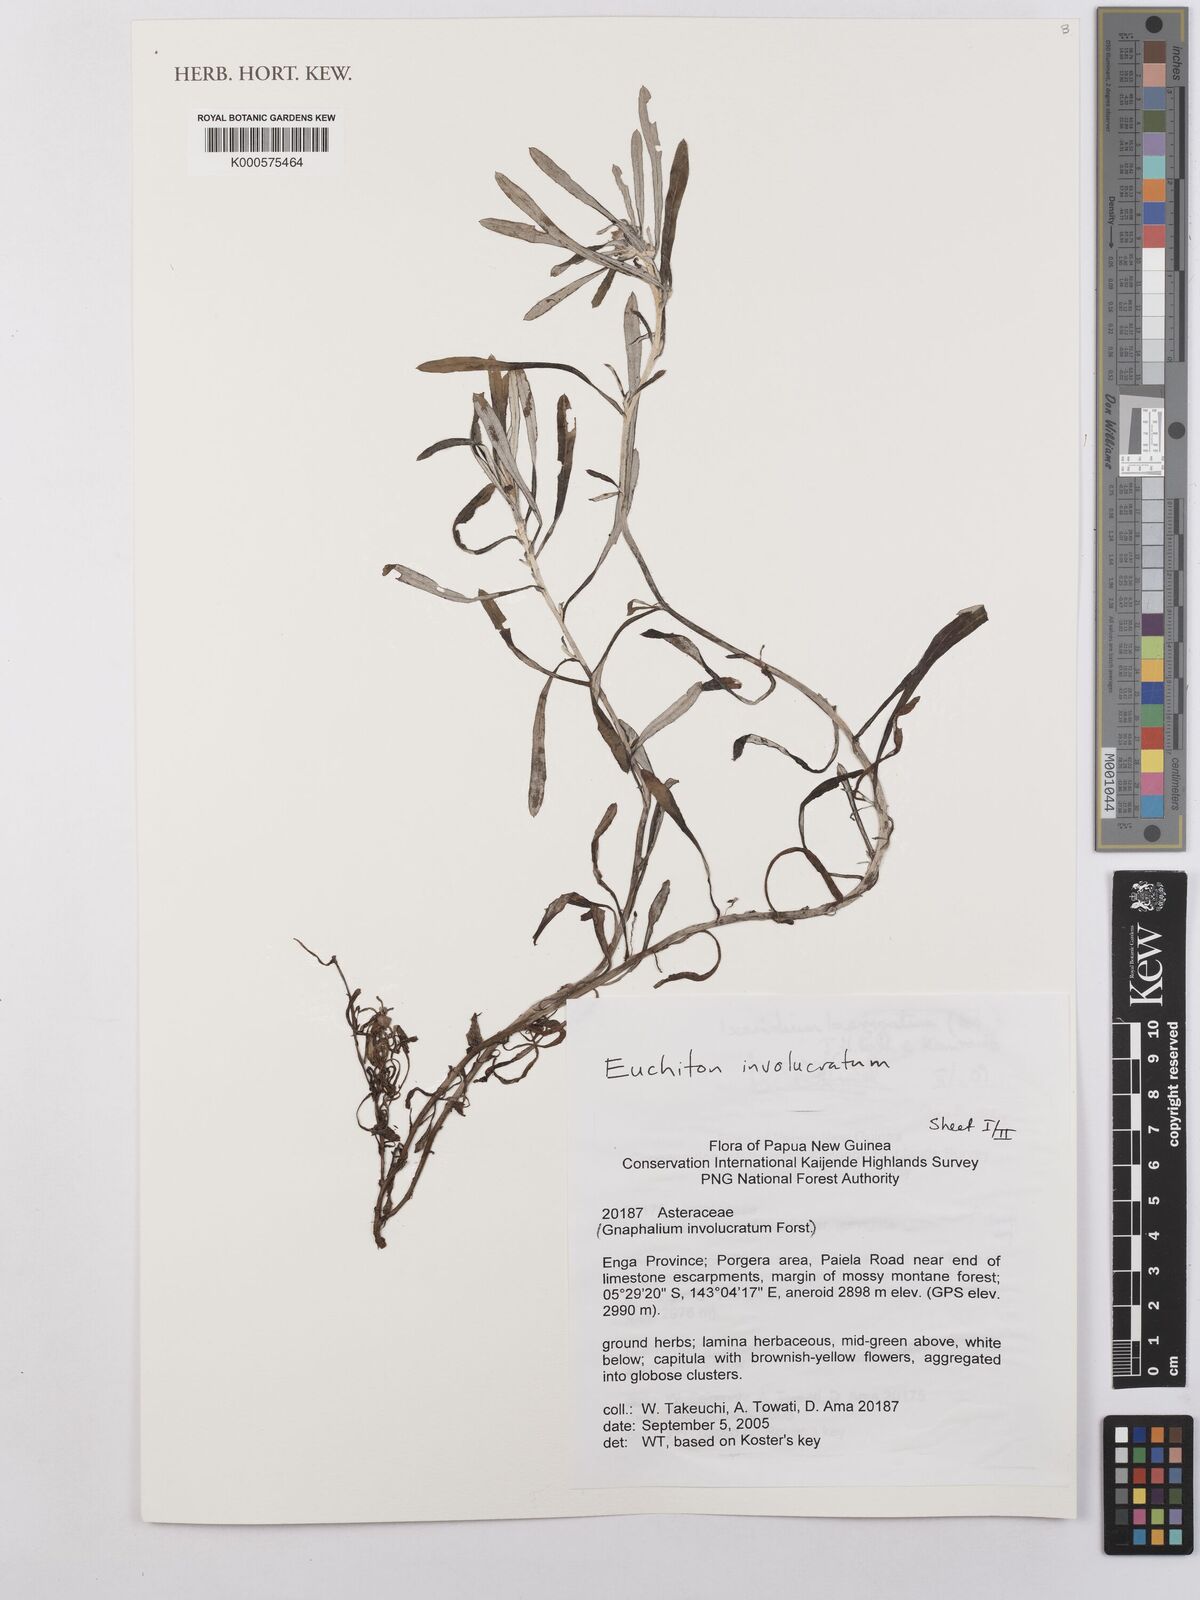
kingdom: Plantae
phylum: Tracheophyta
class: Magnoliopsida
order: Asterales
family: Asteraceae
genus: Euchiton
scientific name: Euchiton
